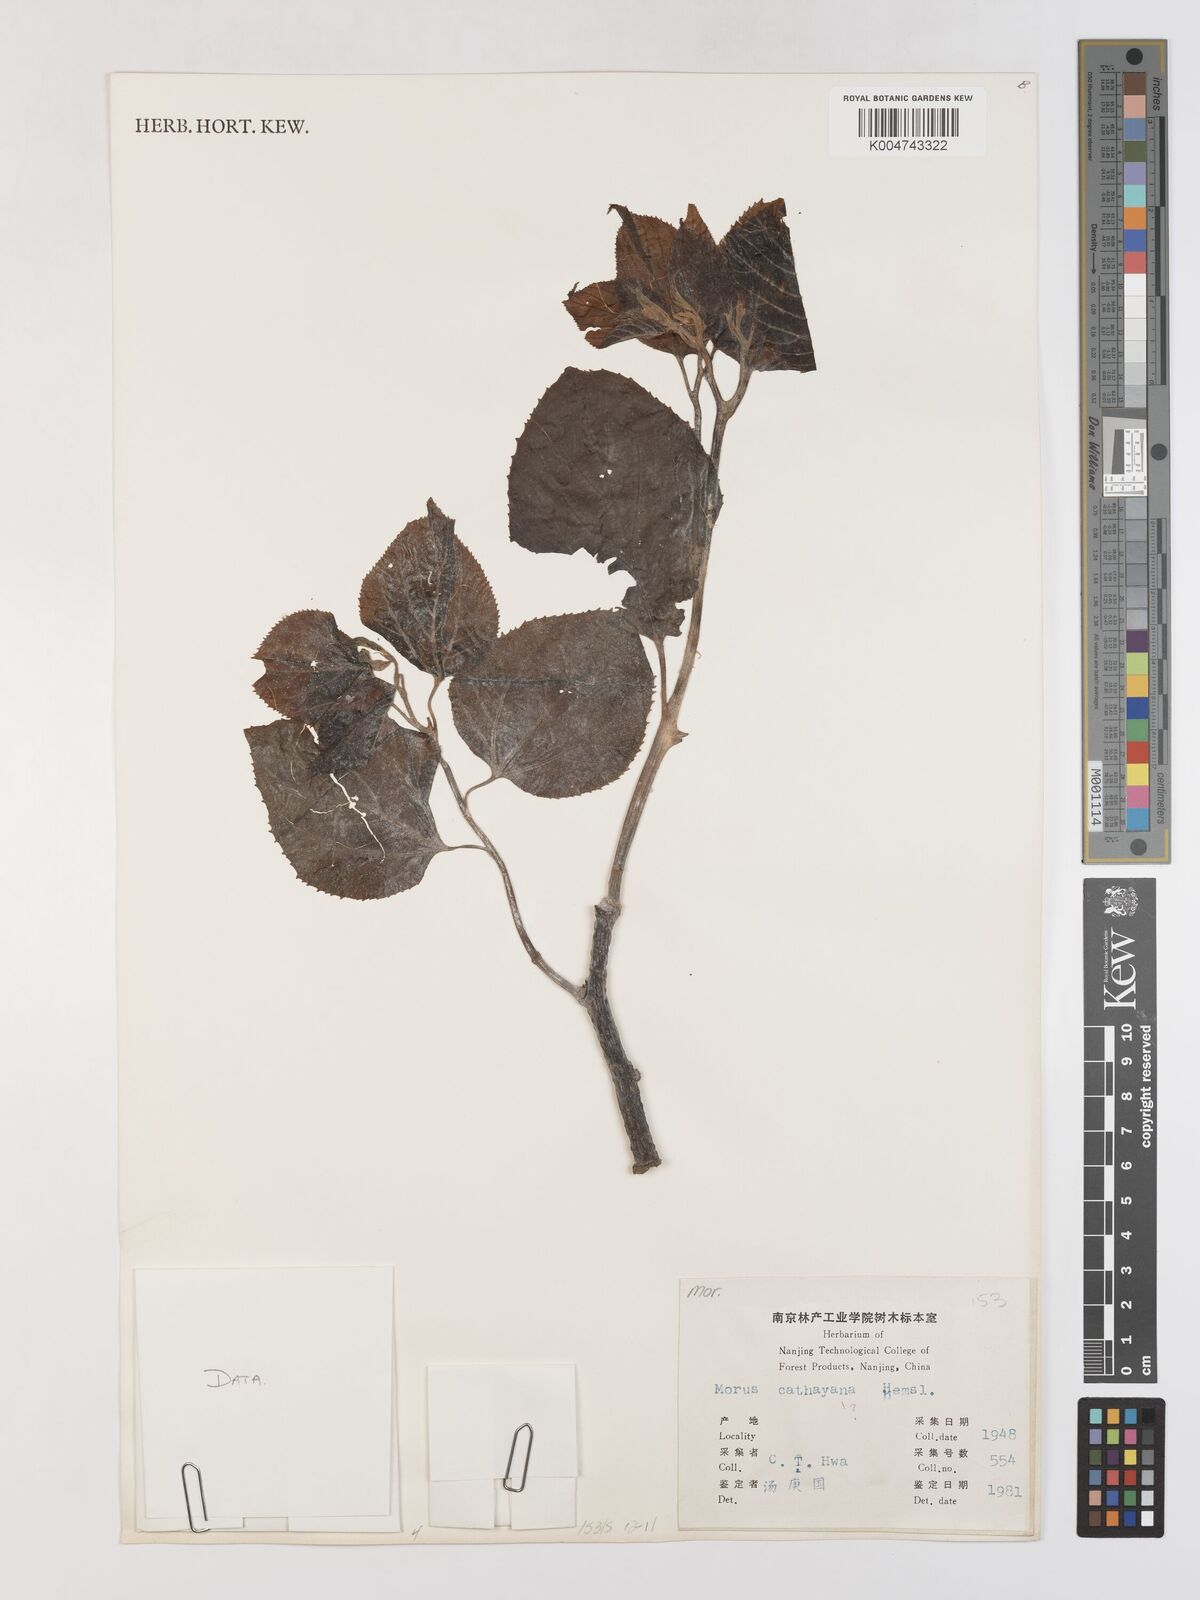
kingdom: Plantae
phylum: Tracheophyta
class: Magnoliopsida
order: Rosales
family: Moraceae
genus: Morus
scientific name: Morus cathayana
